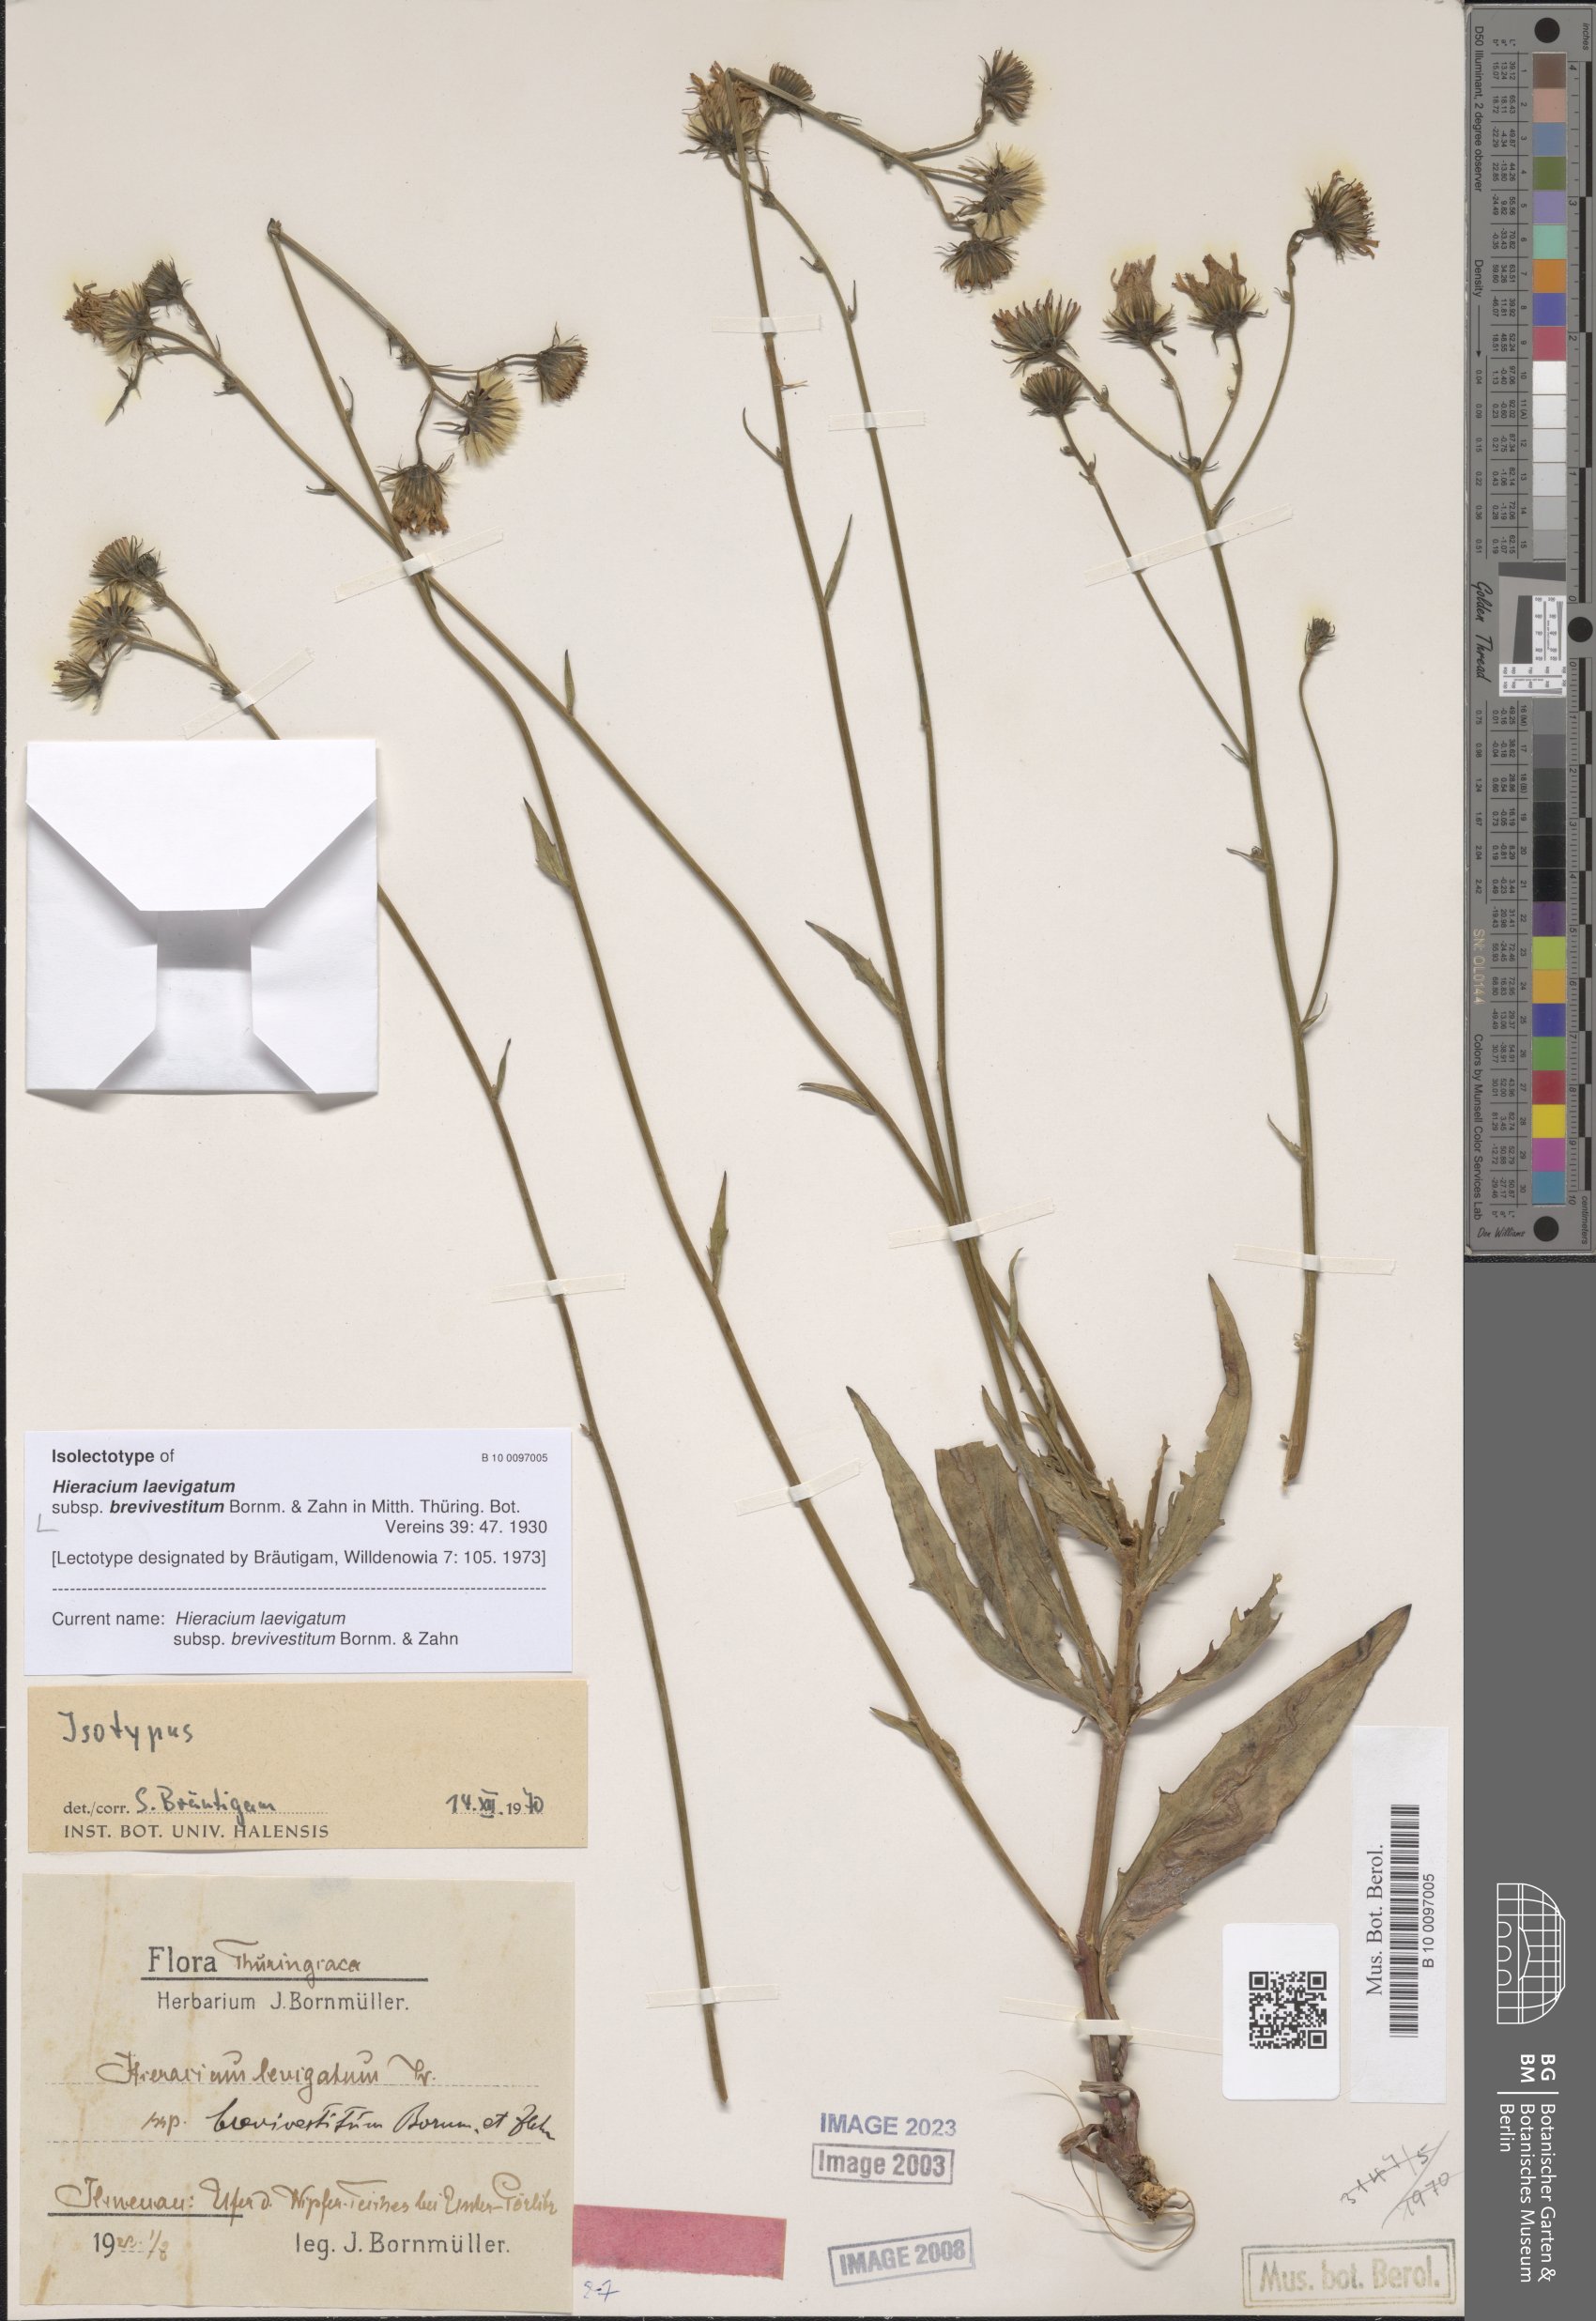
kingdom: Plantae
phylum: Tracheophyta
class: Magnoliopsida
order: Asterales
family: Asteraceae
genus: Hieracium
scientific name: Hieracium laevigatum
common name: Smooth hawkweed
